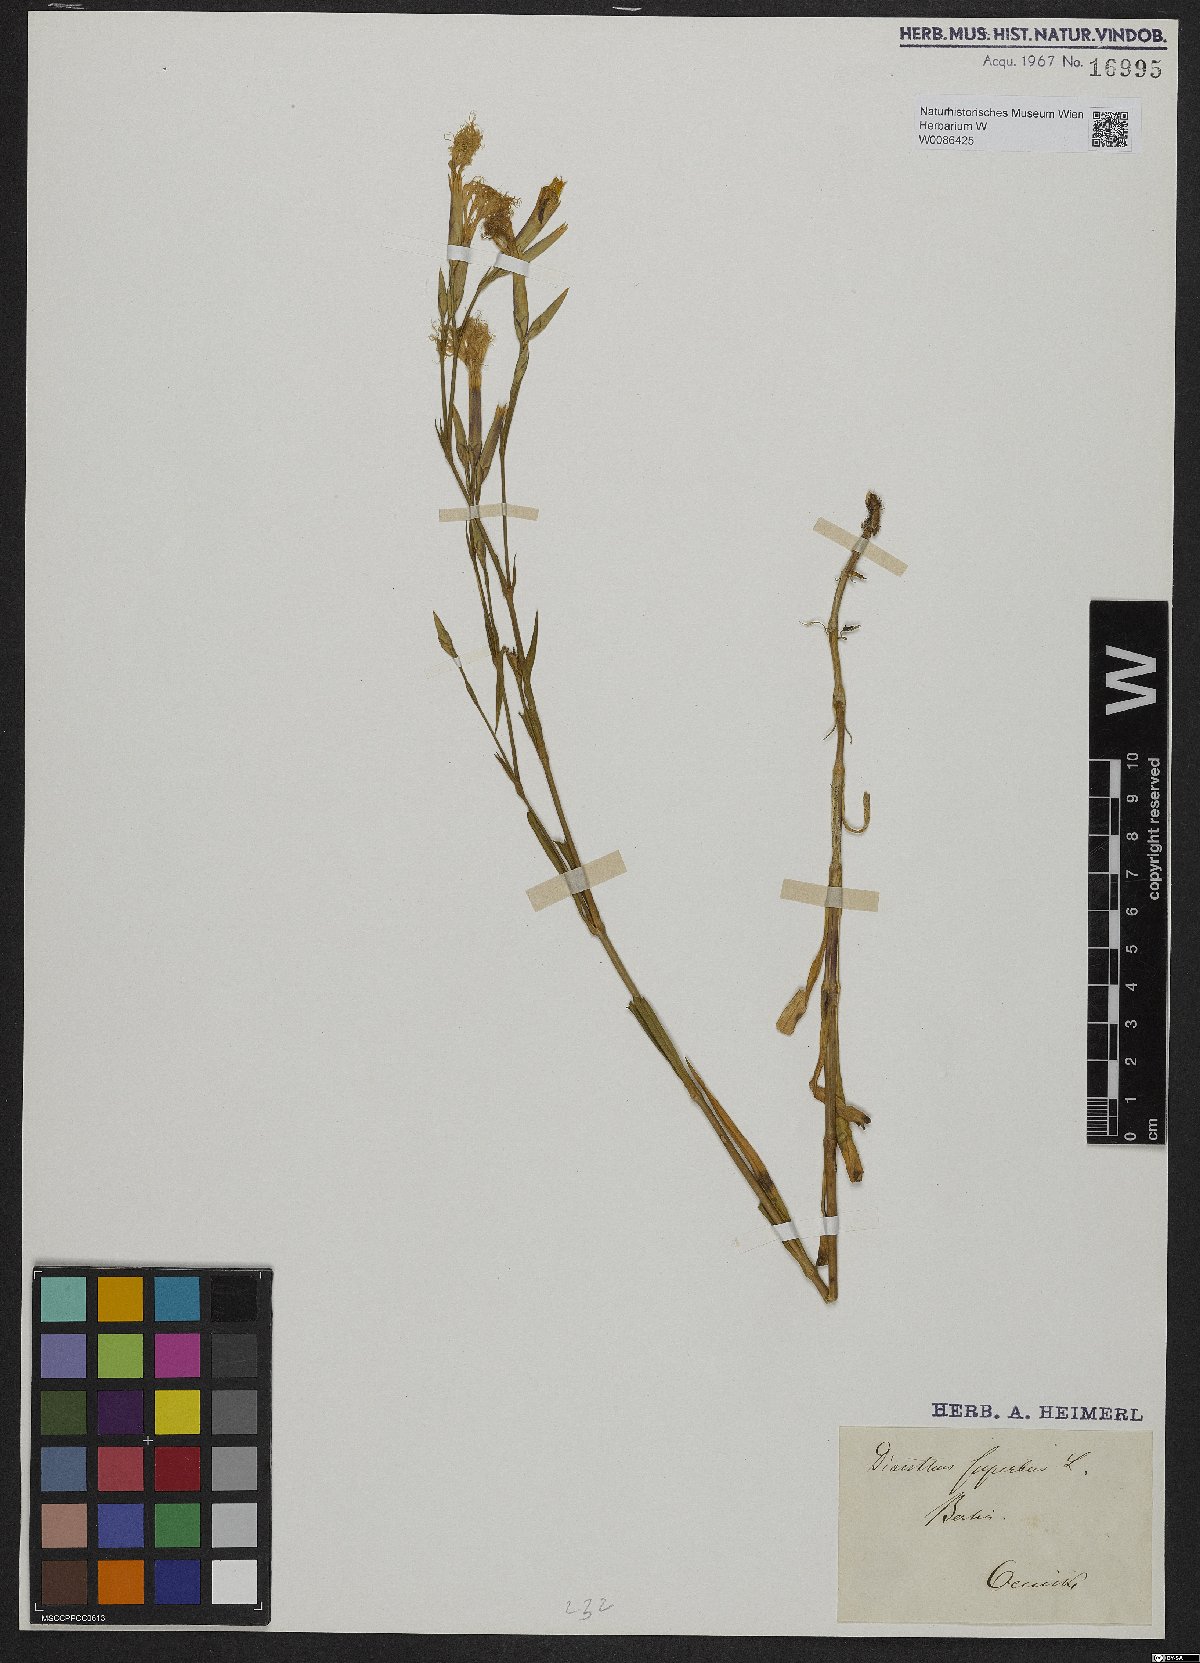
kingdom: Plantae
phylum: Tracheophyta
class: Magnoliopsida
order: Caryophyllales
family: Caryophyllaceae
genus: Dianthus
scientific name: Dianthus superbus
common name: Fringed pink
